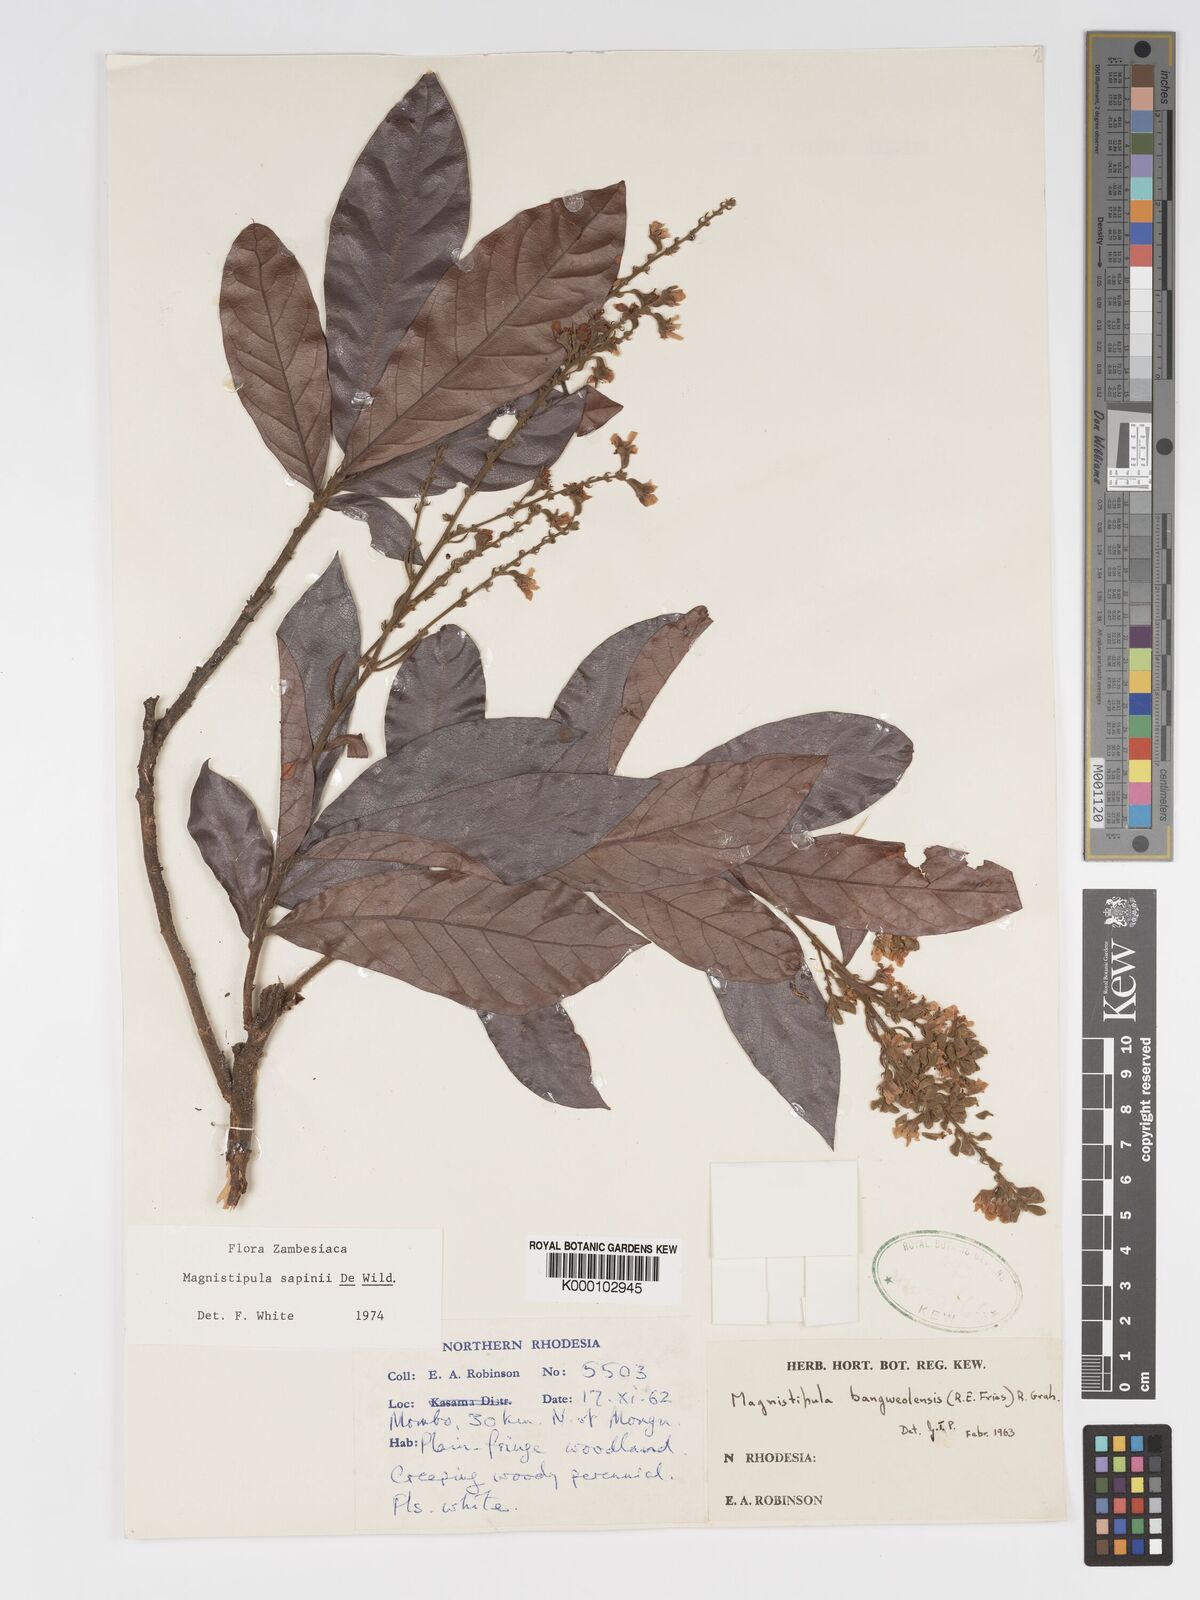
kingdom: Plantae
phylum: Tracheophyta
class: Magnoliopsida
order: Malpighiales
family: Chrysobalanaceae
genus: Magnistipula
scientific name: Magnistipula sapinii
